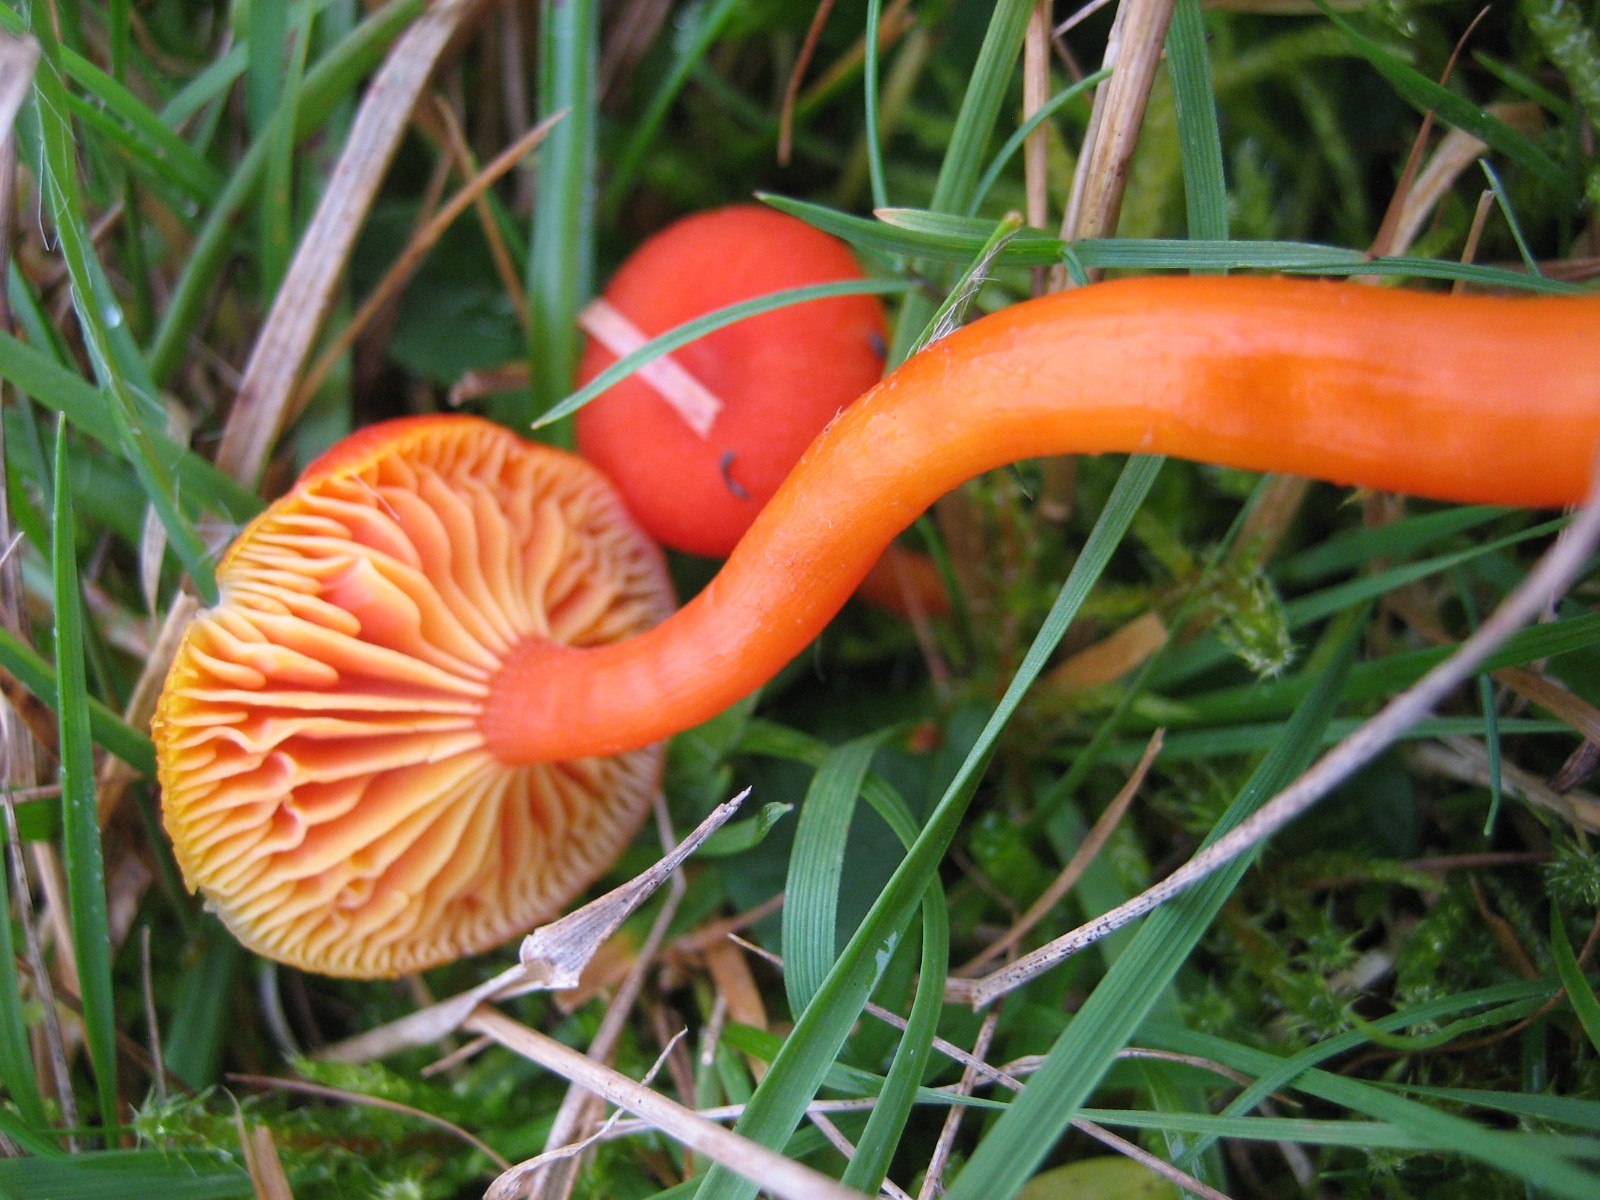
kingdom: Fungi
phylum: Basidiomycota
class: Agaricomycetes
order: Agaricales
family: Hygrophoraceae
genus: Hygrocybe
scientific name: Hygrocybe miniata
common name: mønje-vokshat
